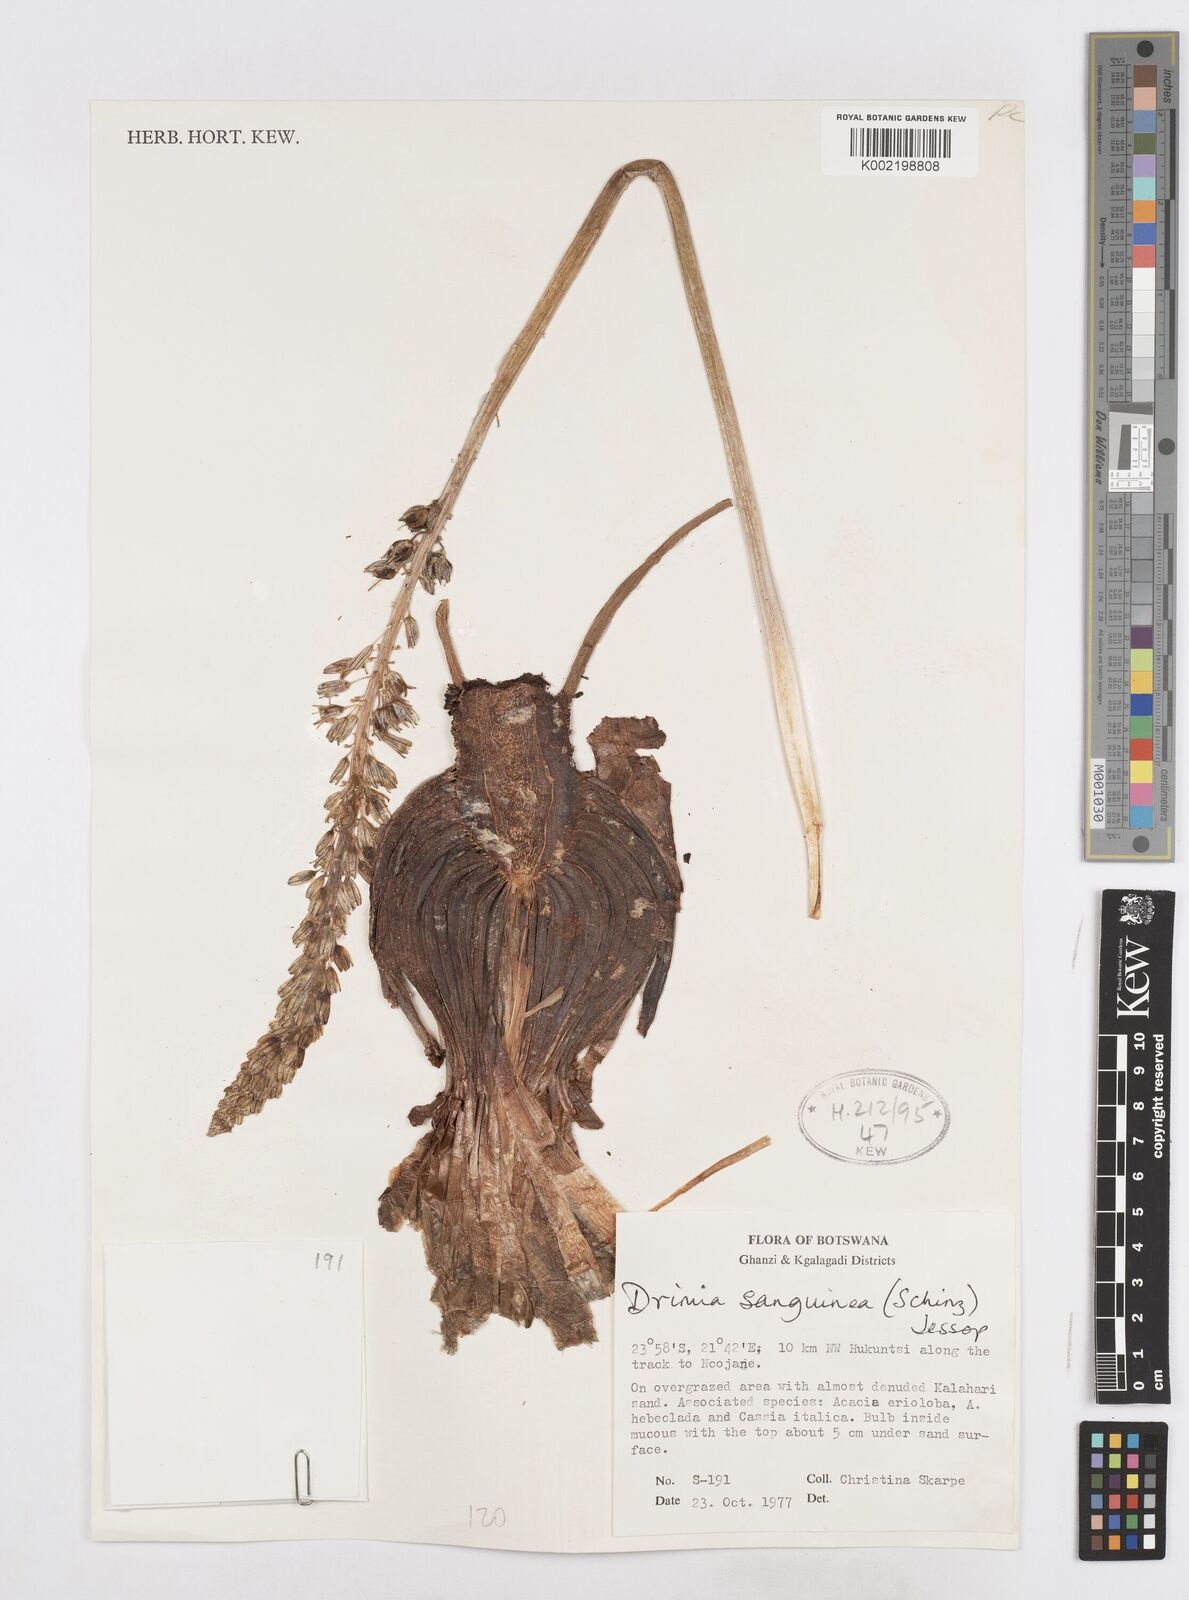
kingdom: Plantae
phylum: Tracheophyta
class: Liliopsida
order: Asparagales
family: Asparagaceae
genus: Drimia
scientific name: Drimia sanguinea
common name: Transvaal slangkop
